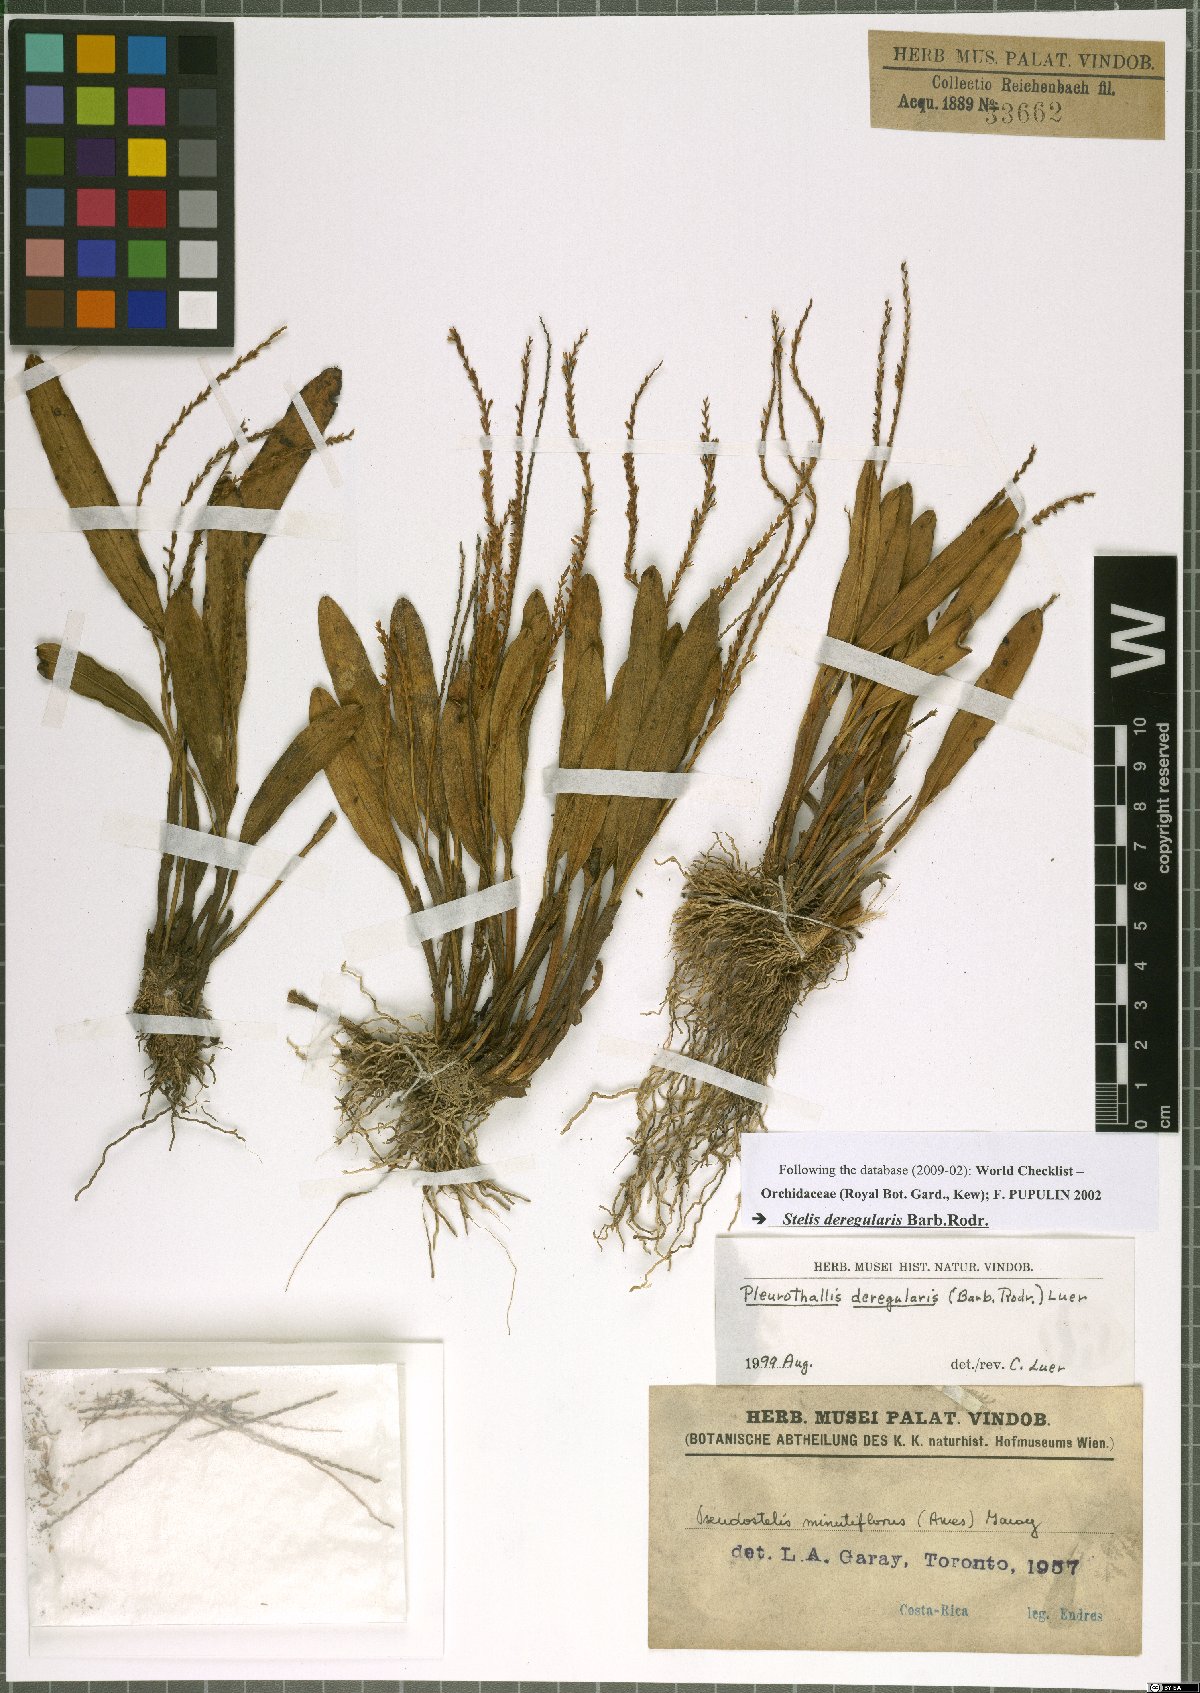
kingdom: Plantae
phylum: Tracheophyta
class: Liliopsida
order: Asparagales
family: Orchidaceae
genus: Stelis
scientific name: Stelis deregularis
